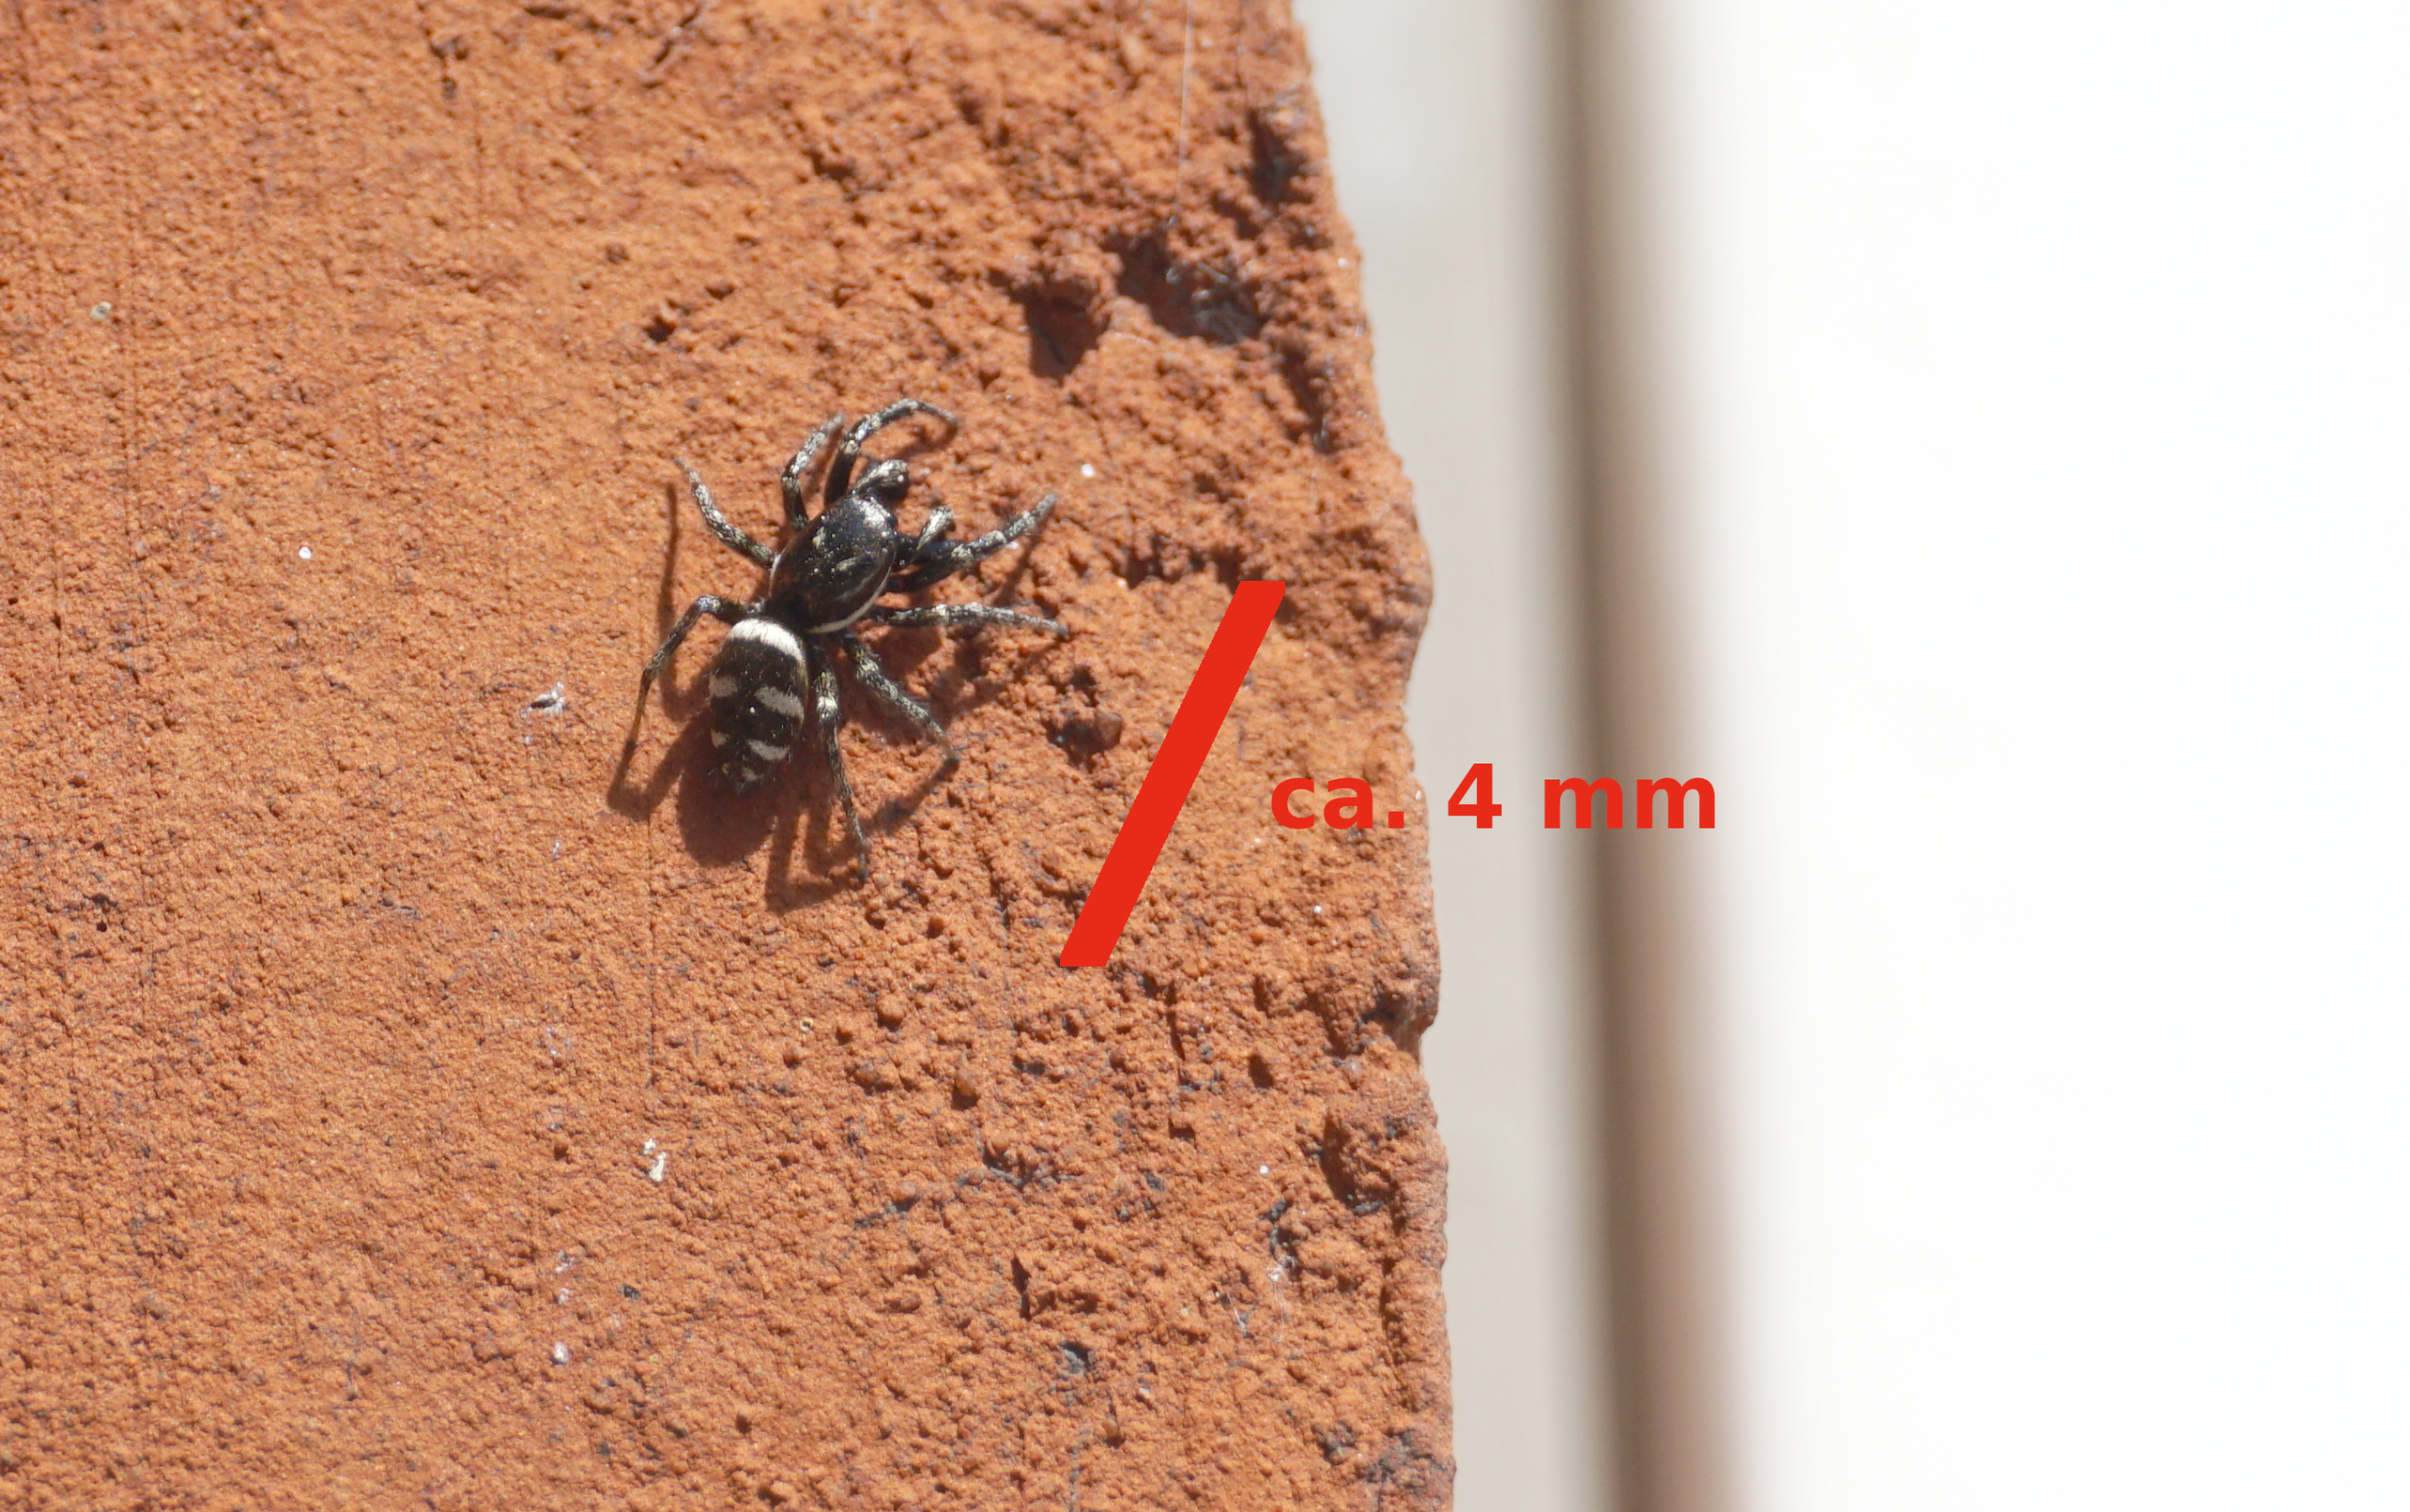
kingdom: Animalia
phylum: Arthropoda
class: Arachnida
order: Araneae
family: Salticidae
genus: Salticus
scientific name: Salticus scenicus
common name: Almindelig zebraedderkop
